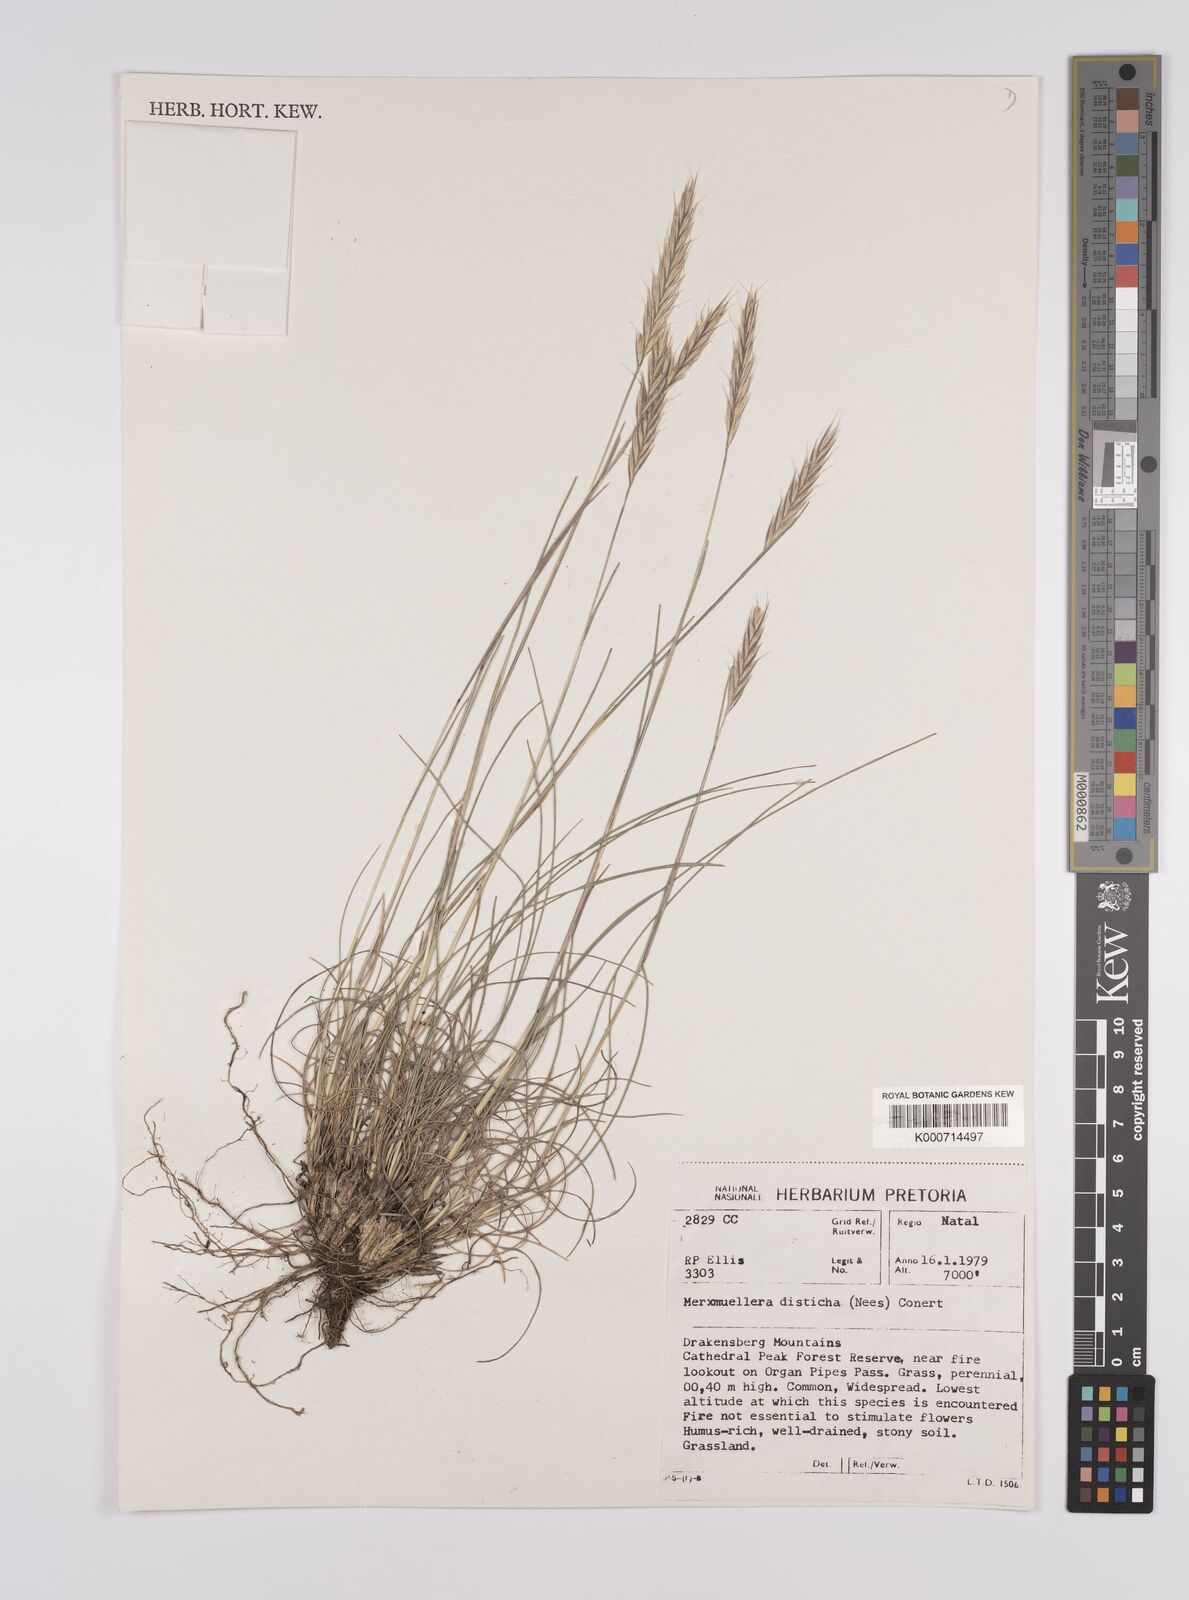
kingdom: Plantae
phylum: Tracheophyta
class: Liliopsida
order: Poales
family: Poaceae
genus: Tenaxia
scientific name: Tenaxia disticha
